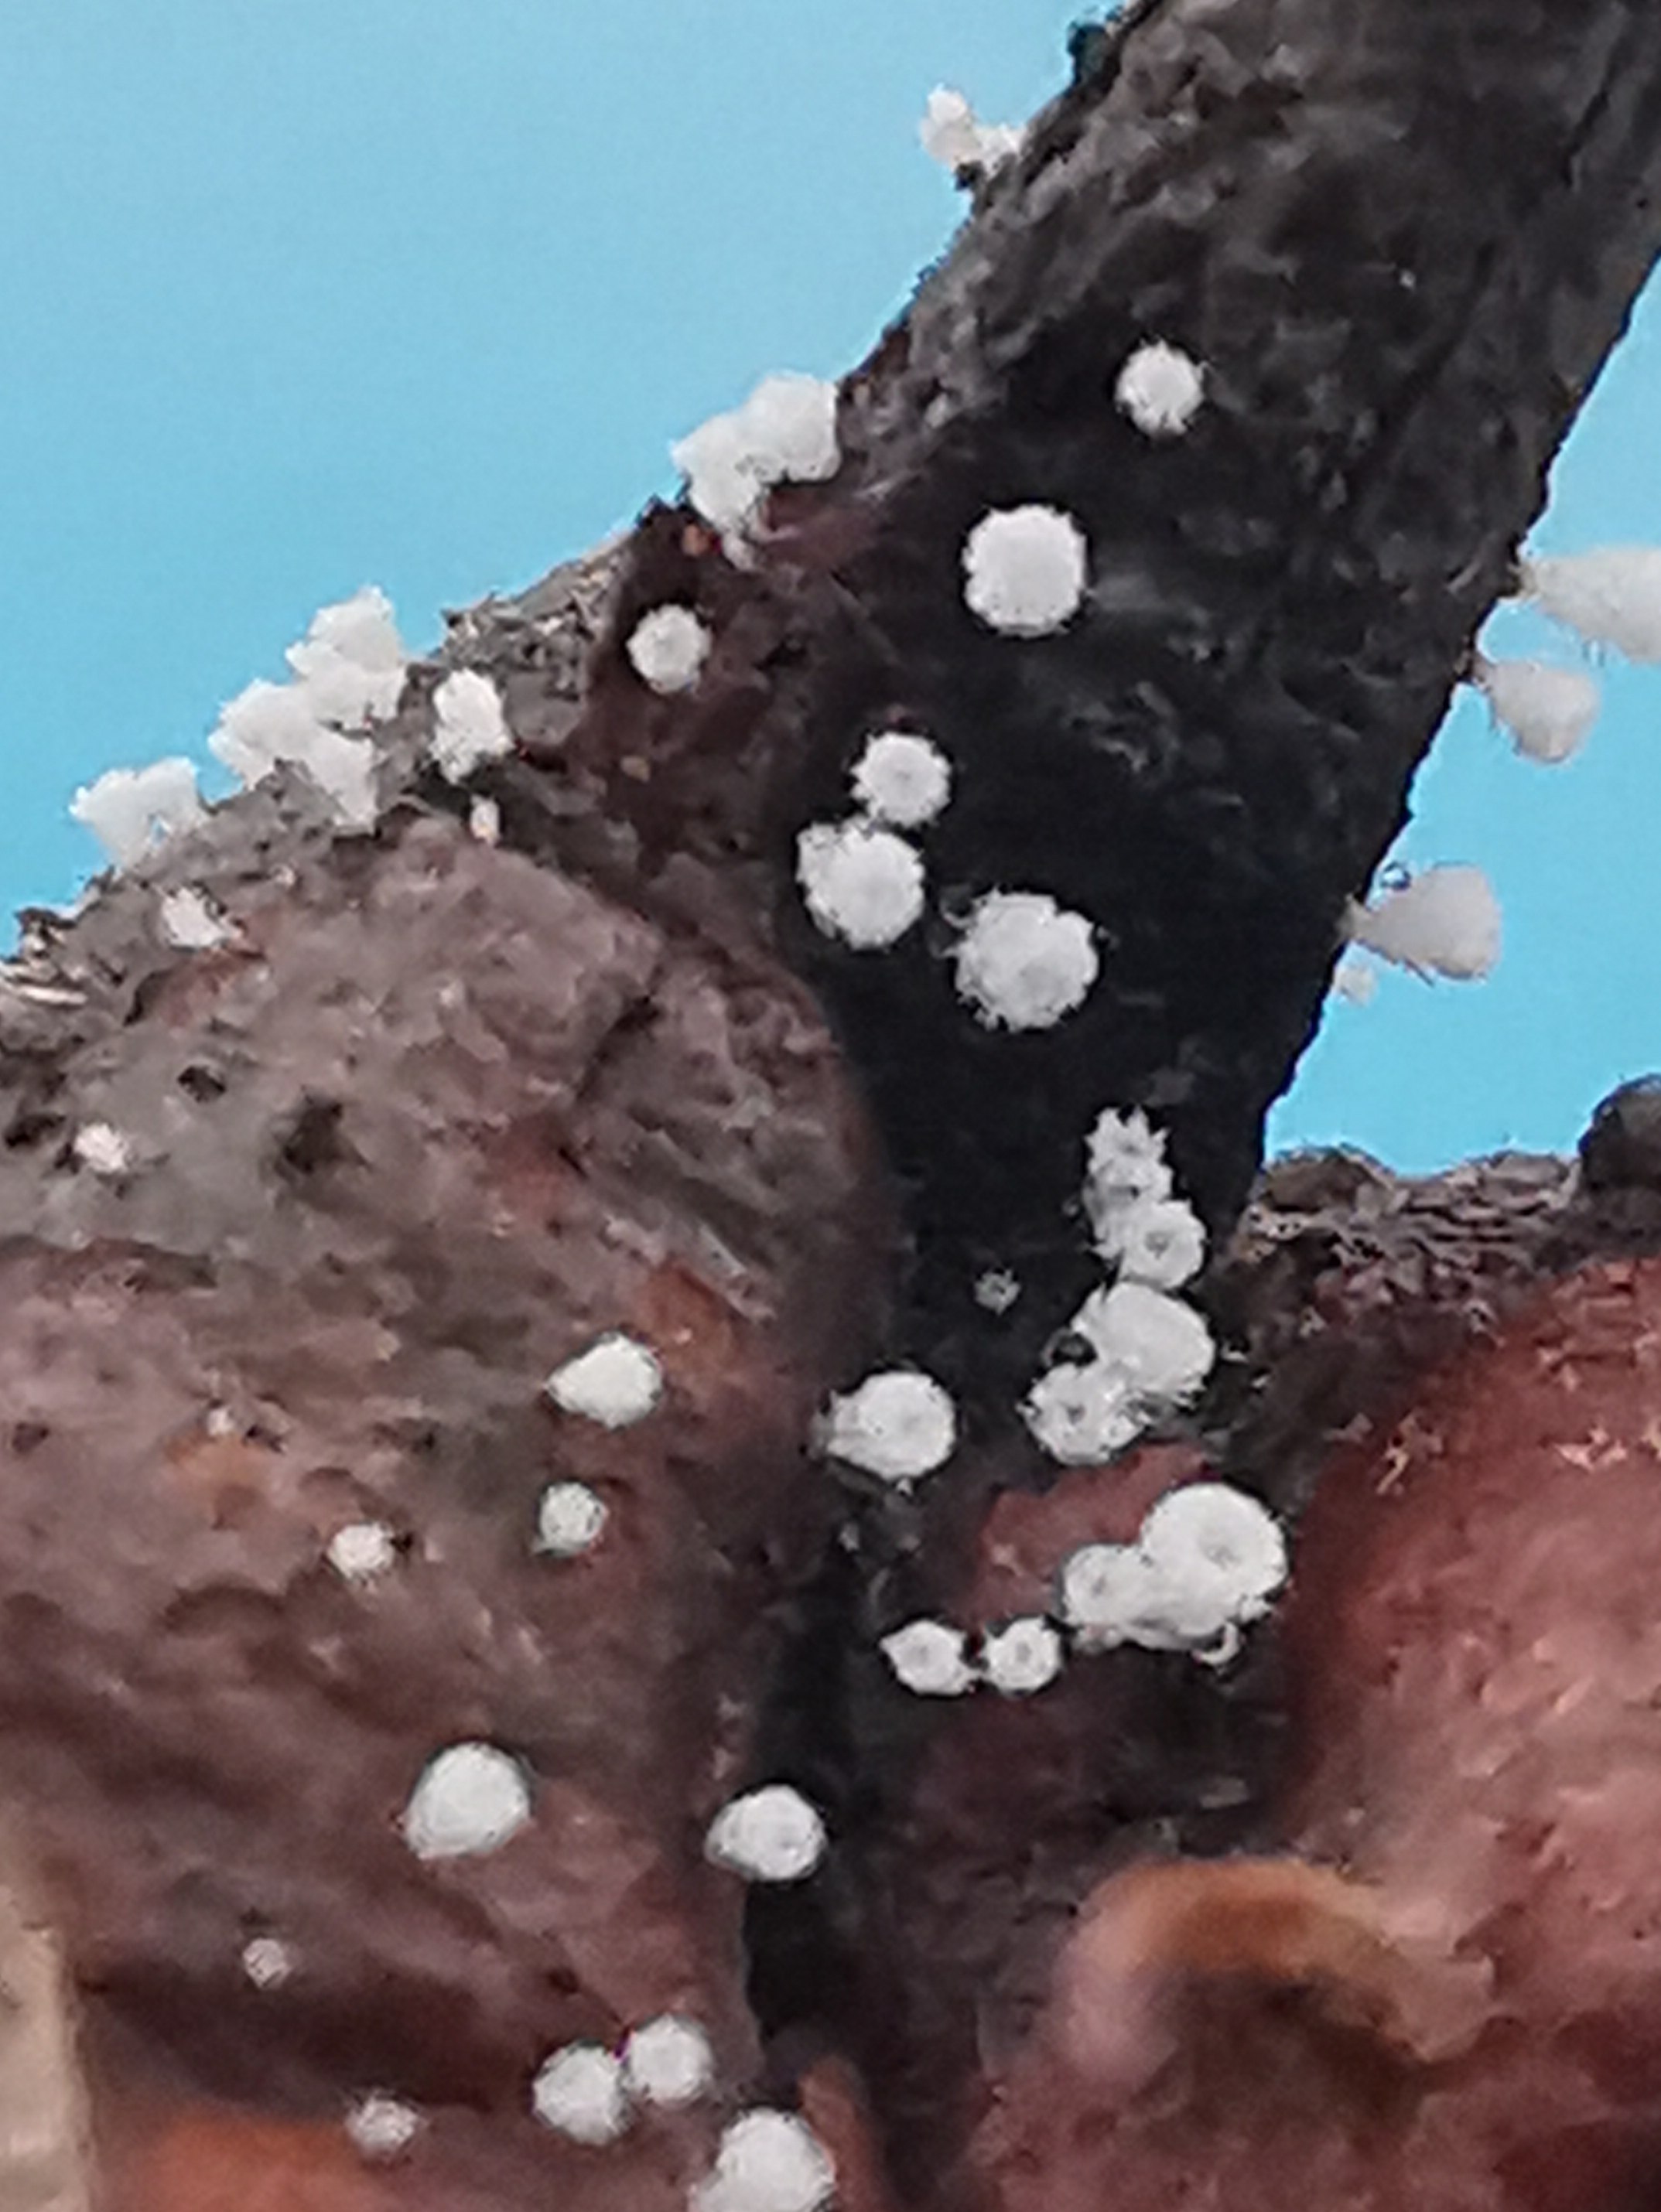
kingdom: Fungi
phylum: Ascomycota
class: Leotiomycetes
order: Helotiales
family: Lachnaceae
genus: Lachnum
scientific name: Lachnum virgineum
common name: jomfru-frynseskive
